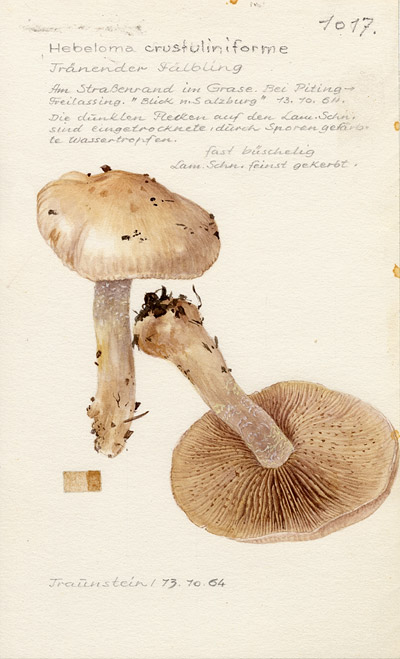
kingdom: Fungi
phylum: Basidiomycota
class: Agaricomycetes
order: Agaricales
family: Hymenogastraceae
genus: Hebeloma
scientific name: Hebeloma crustuliniforme
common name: Poison pie
